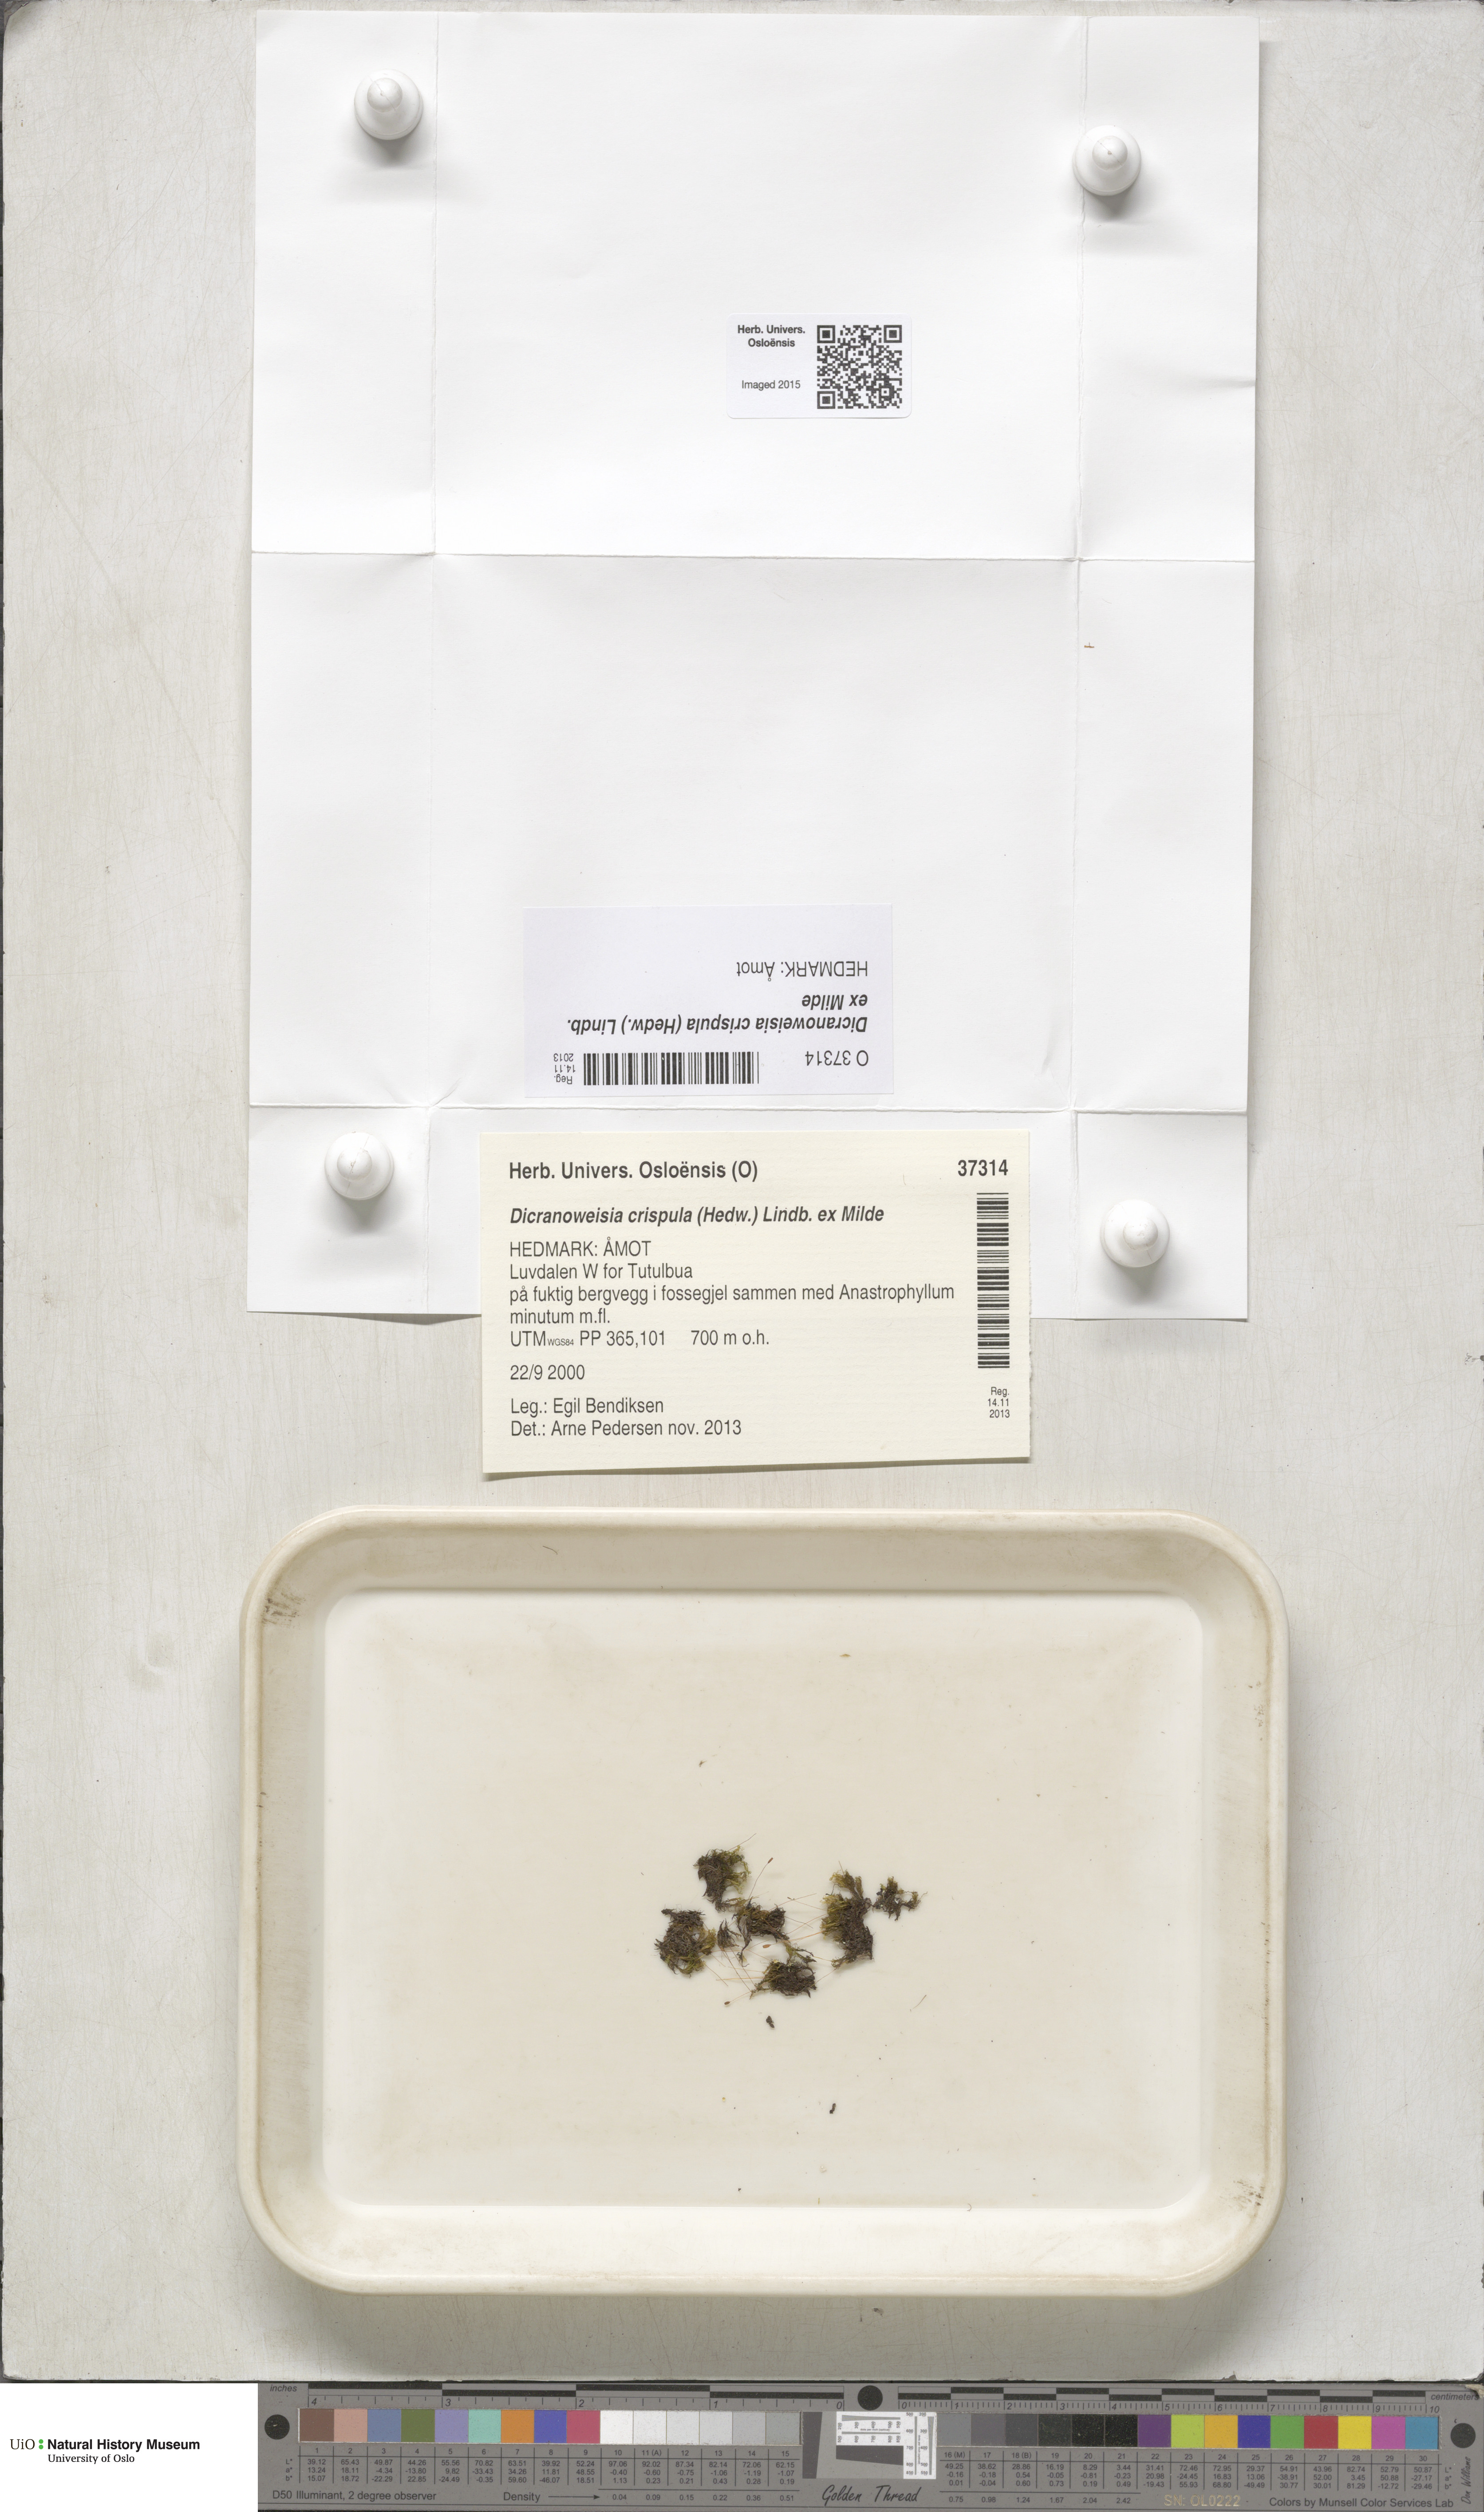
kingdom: Plantae
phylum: Bryophyta
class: Bryopsida
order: Scouleriales
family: Hymenolomataceae
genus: Hymenoloma
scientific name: Hymenoloma crispulum
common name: Mountain pincushion
